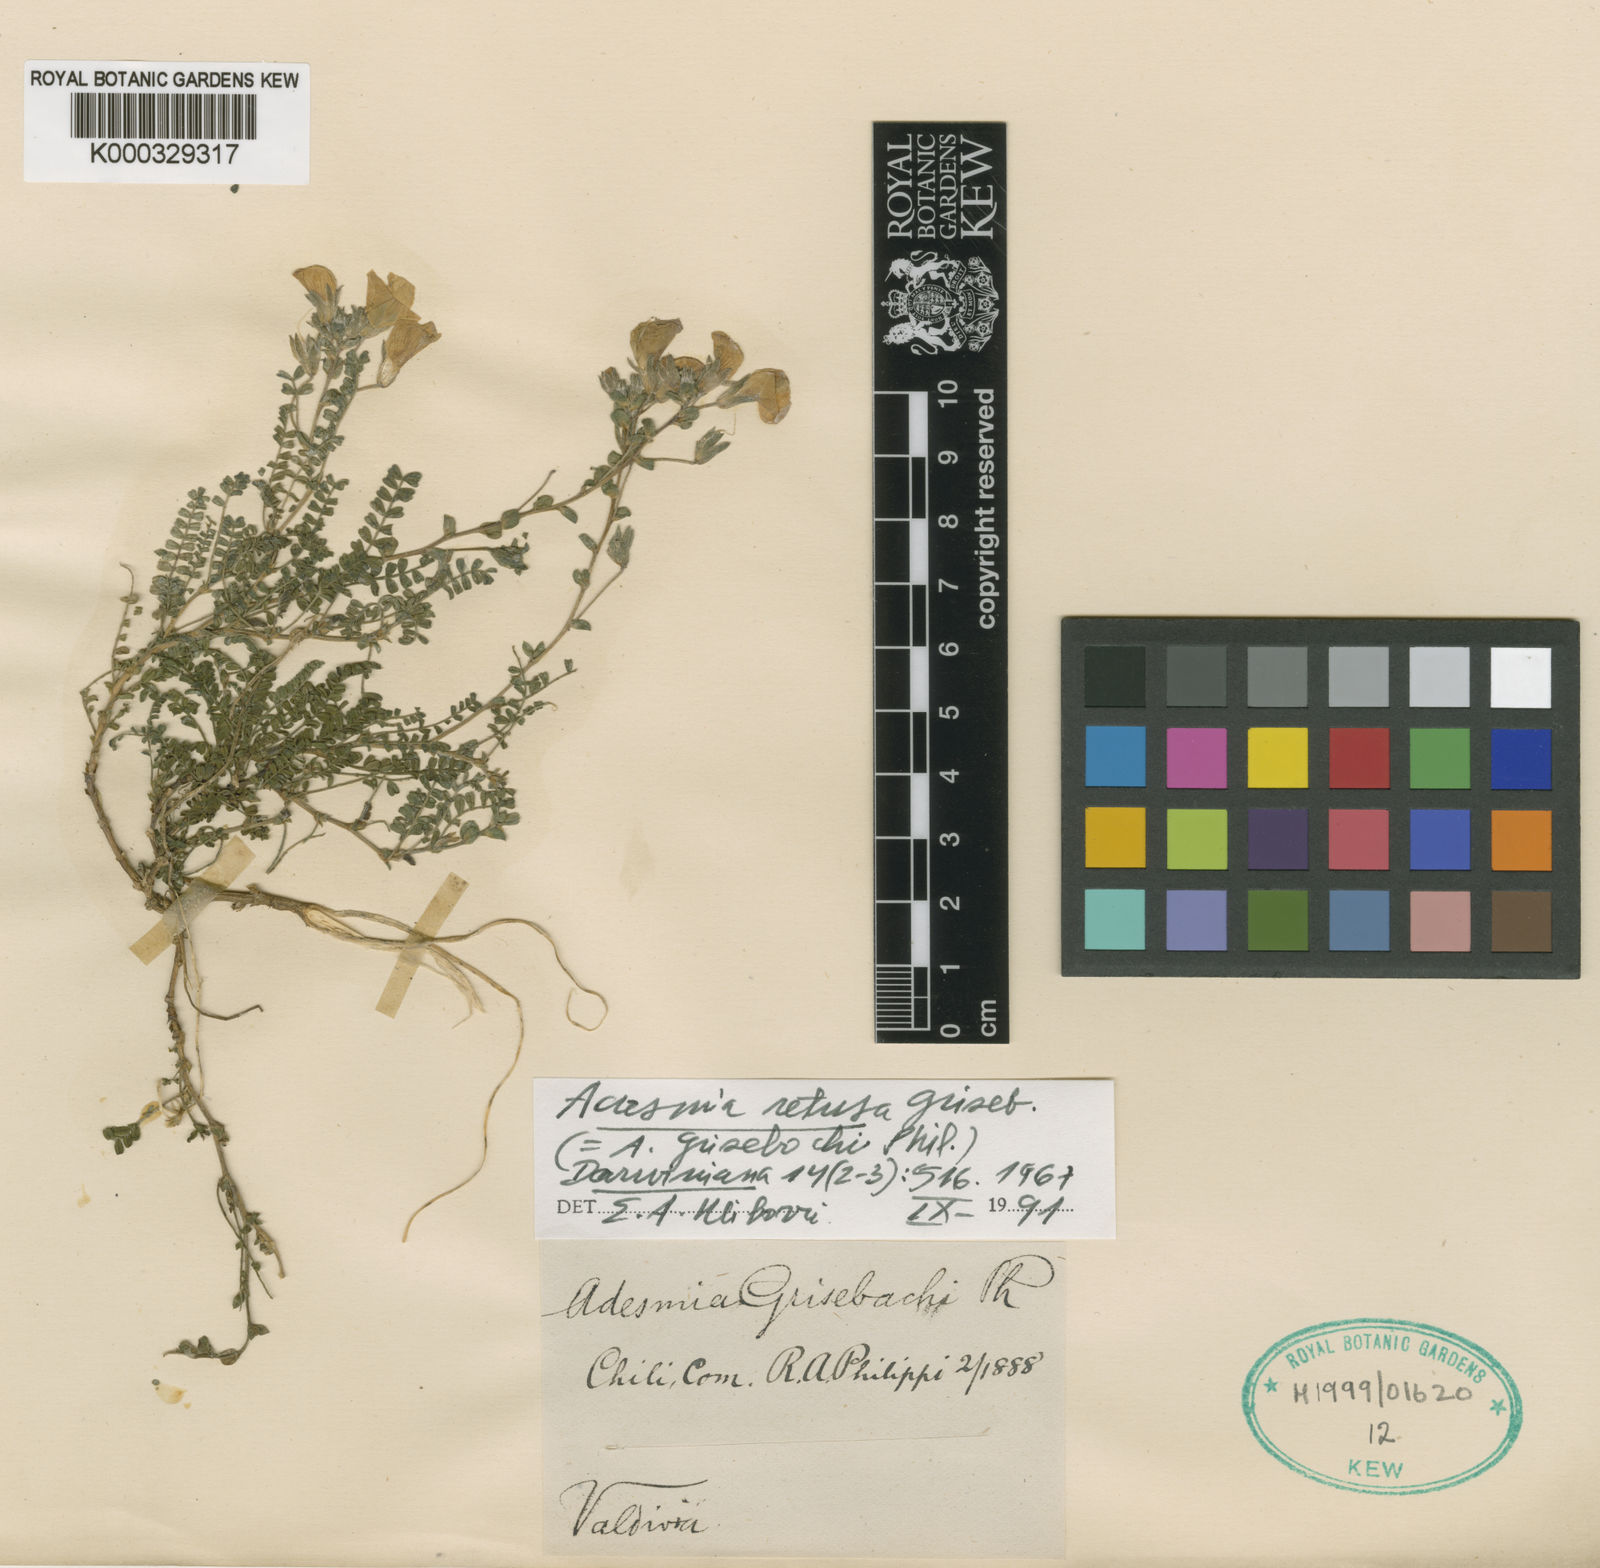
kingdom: Plantae
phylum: Tracheophyta
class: Magnoliopsida
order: Fabales
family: Fabaceae
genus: Adesmia
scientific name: Adesmia retusa
